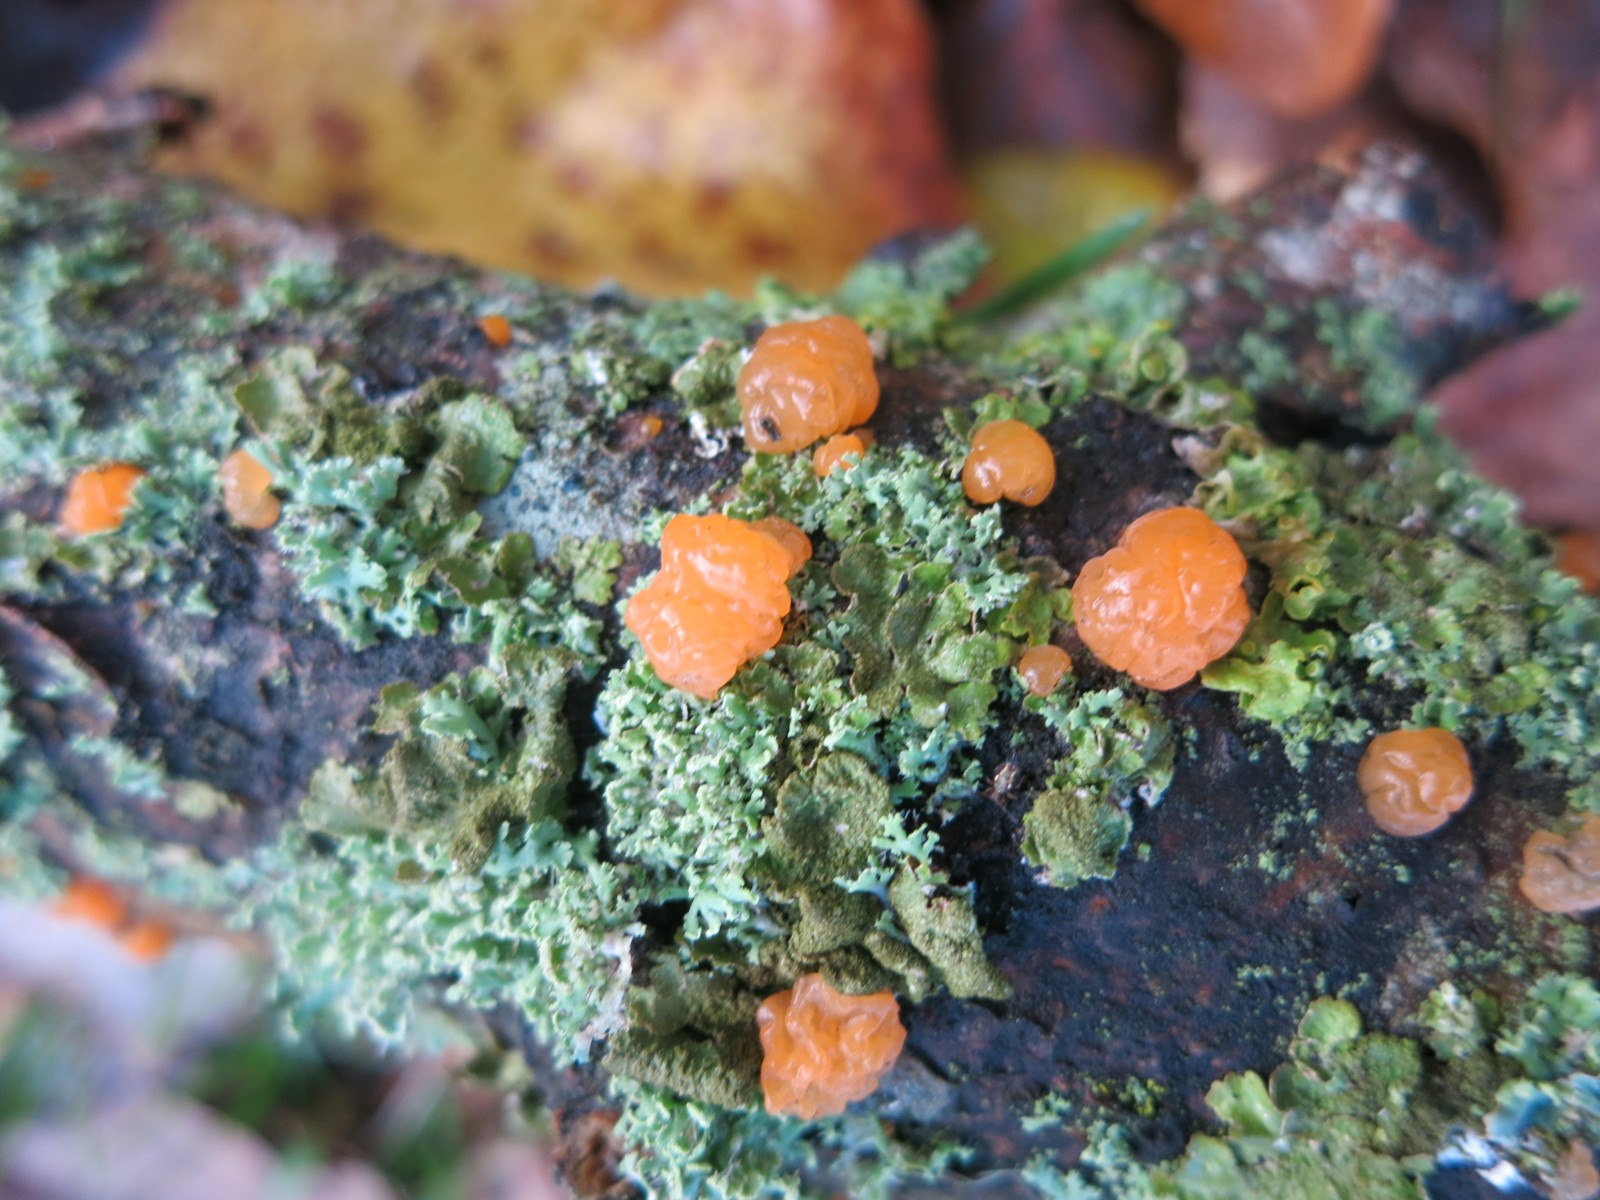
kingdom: Fungi
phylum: Basidiomycota
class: Dacrymycetes
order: Dacrymycetales
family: Dacrymycetaceae
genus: Dacrymyces
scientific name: Dacrymyces
